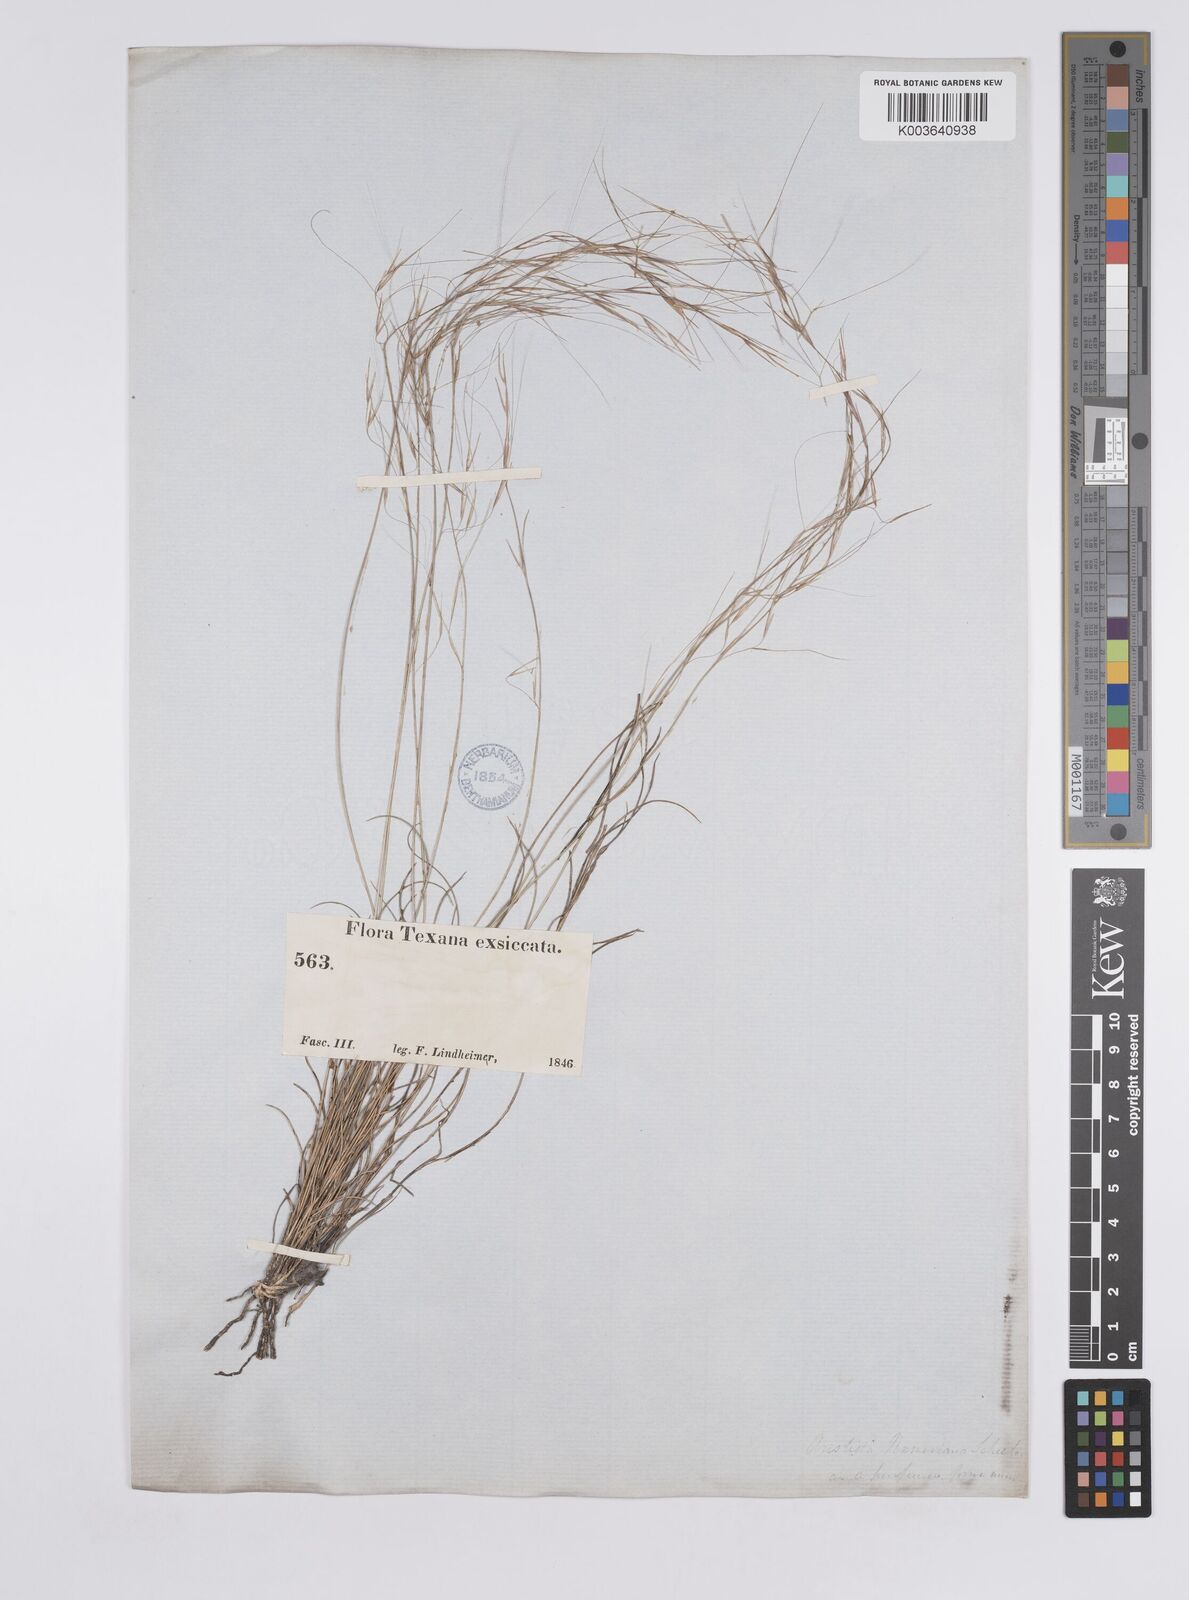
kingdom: Plantae
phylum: Tracheophyta
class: Liliopsida
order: Poales
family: Poaceae
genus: Aristida
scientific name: Aristida purpurea
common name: Purple threeawn
